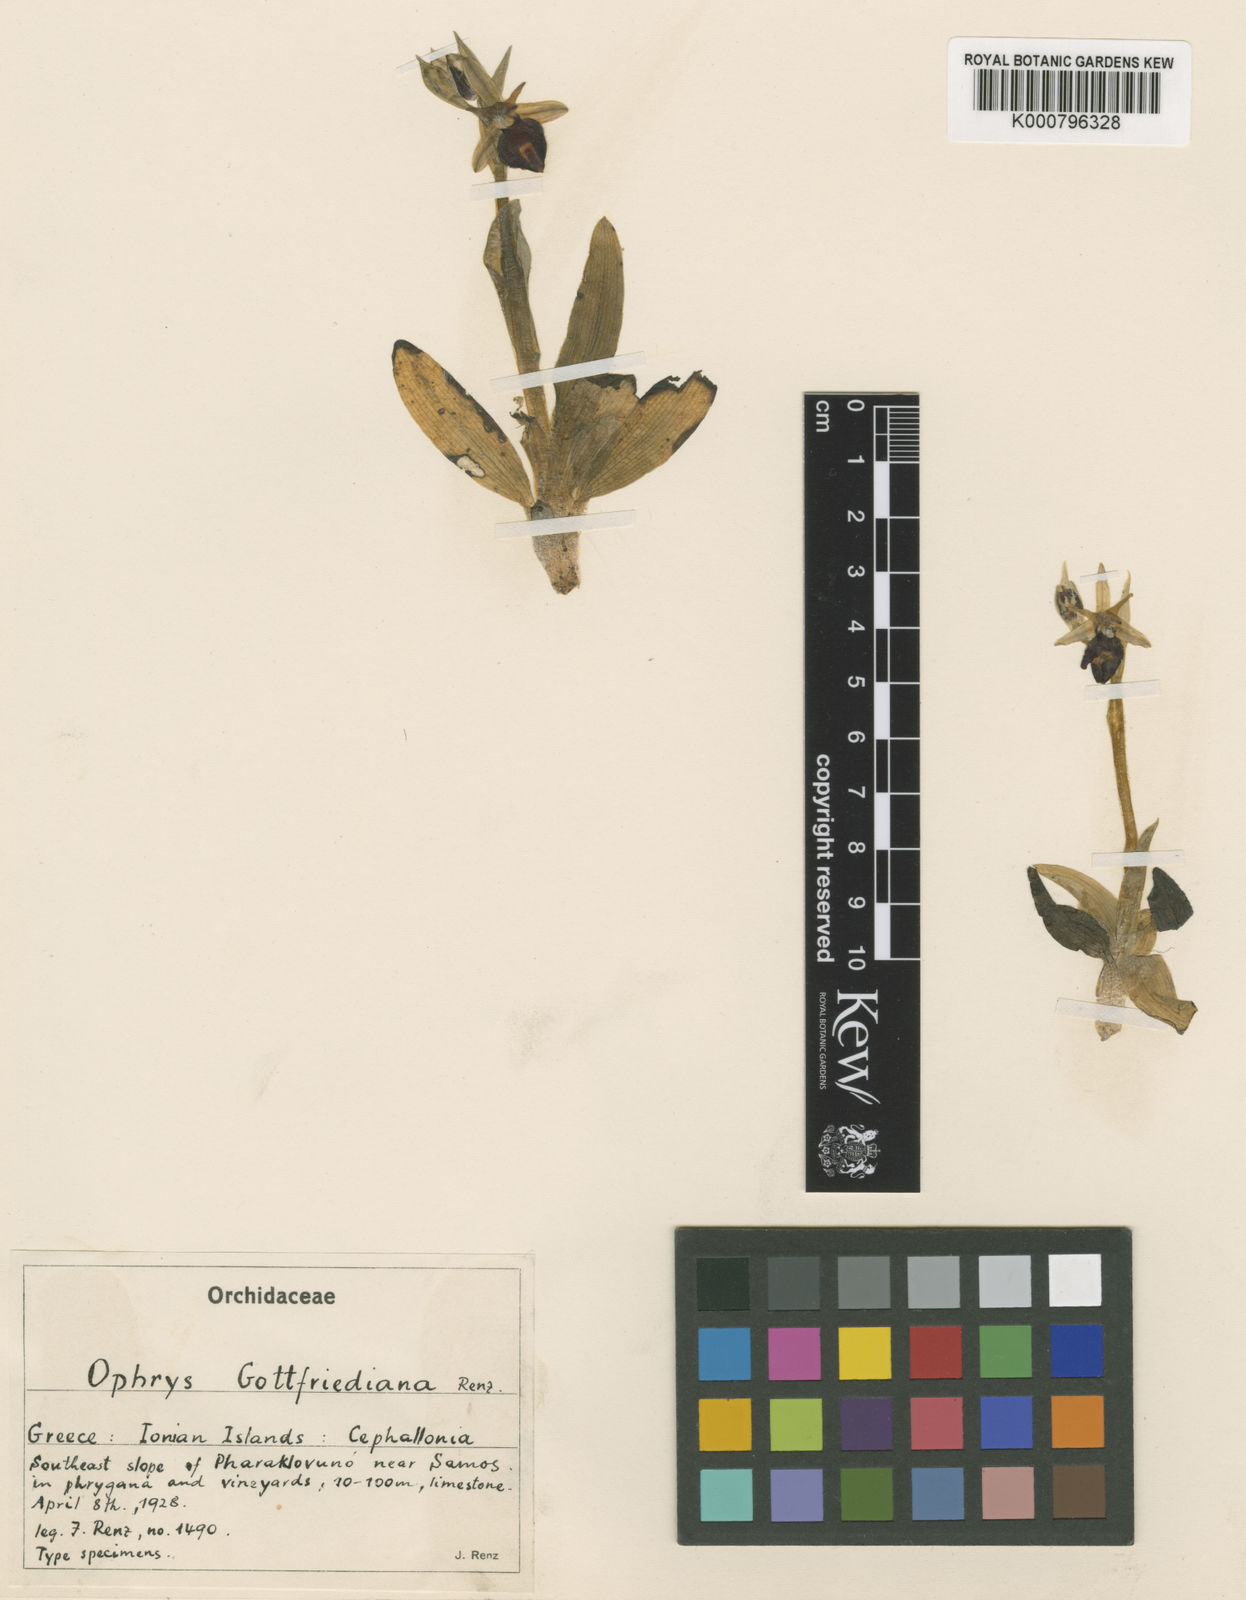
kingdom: Plantae
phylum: Tracheophyta
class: Liliopsida
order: Asparagales
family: Orchidaceae
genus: Ophrys
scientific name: Ophrys ferrum-equinum
